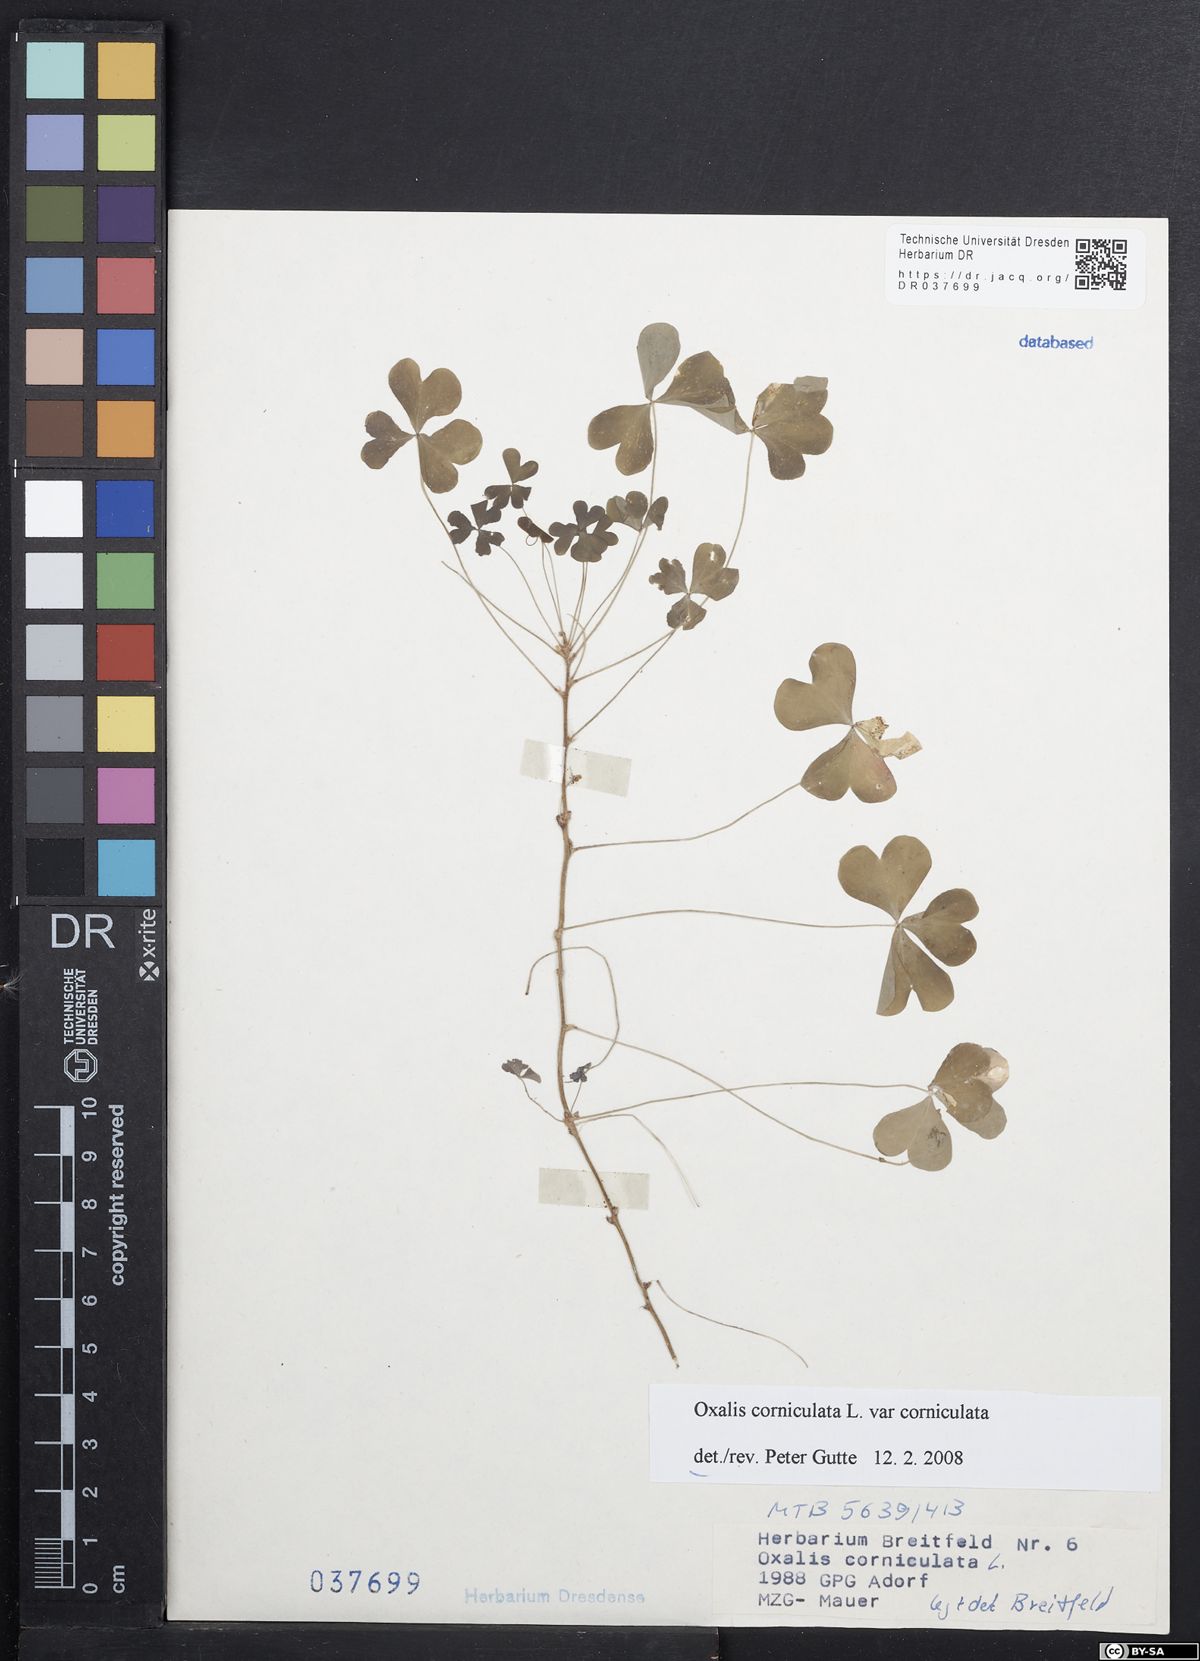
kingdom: Plantae
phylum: Tracheophyta
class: Magnoliopsida
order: Oxalidales
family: Oxalidaceae
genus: Oxalis
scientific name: Oxalis corniculata
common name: Procumbent yellow-sorrel
